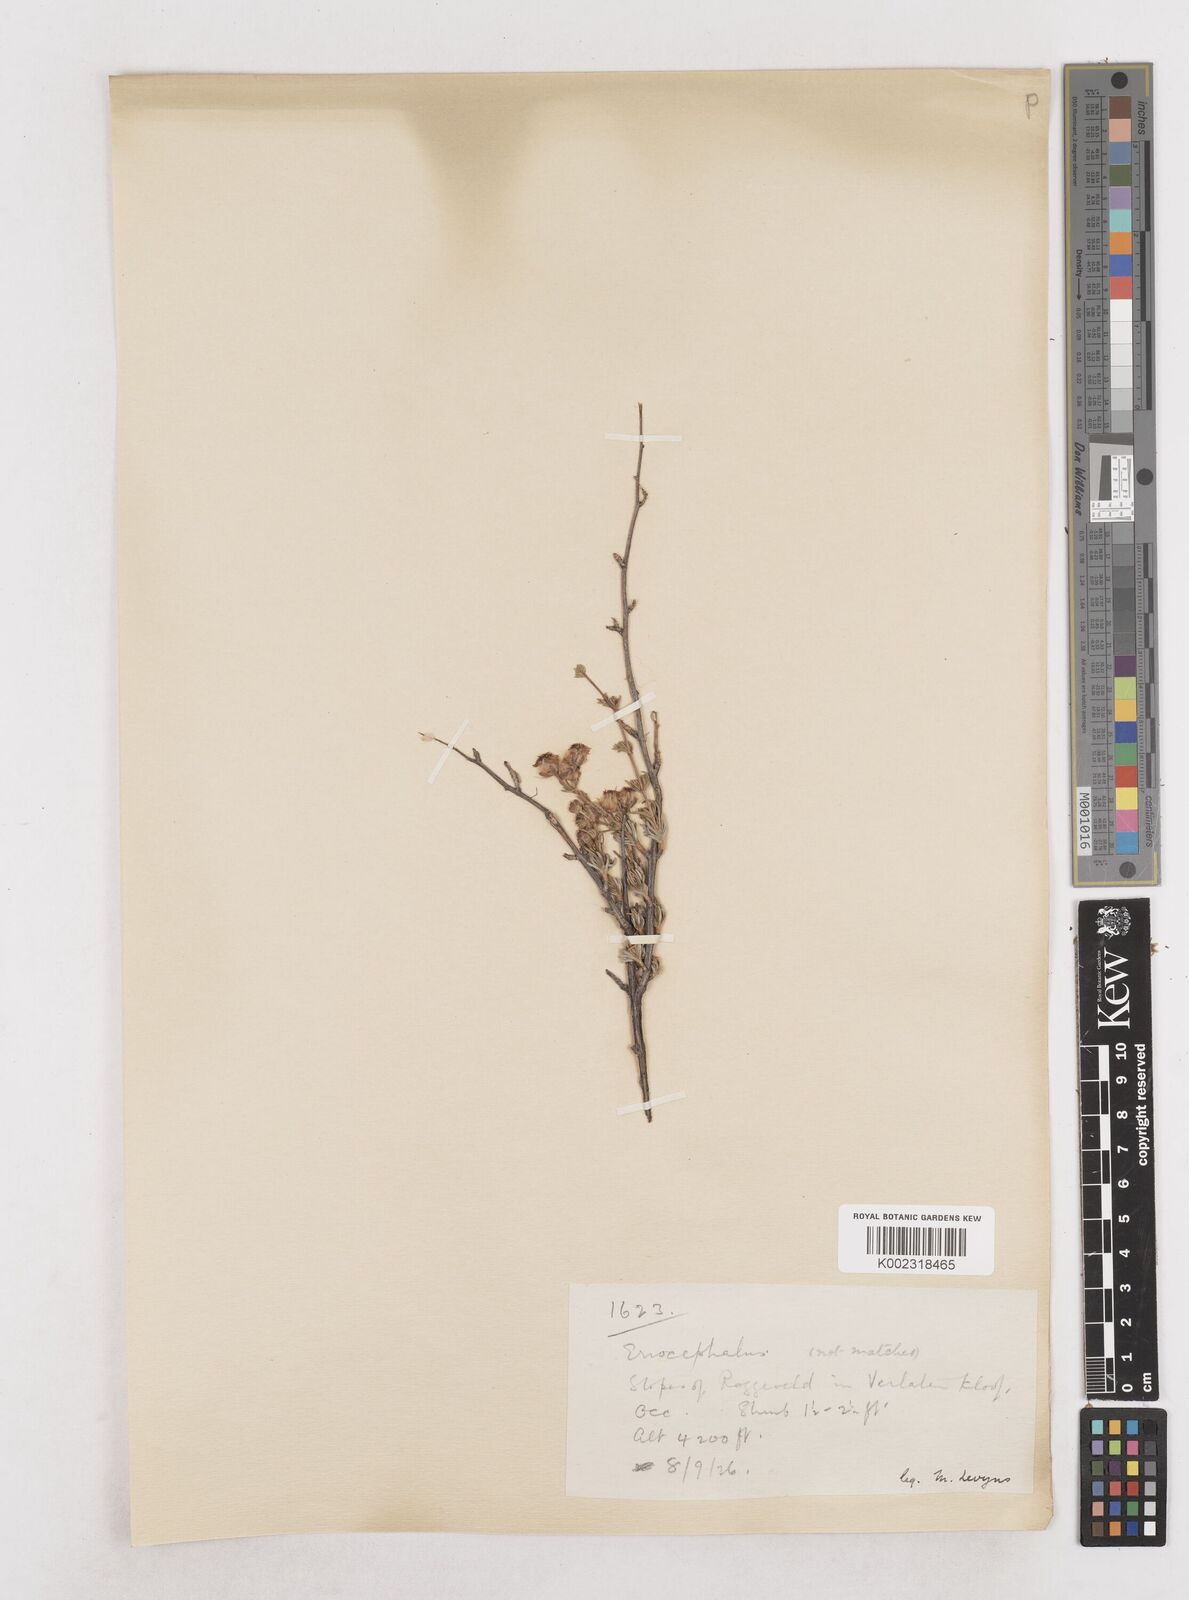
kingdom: Plantae
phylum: Tracheophyta
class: Magnoliopsida
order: Asterales
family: Asteraceae
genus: Eriocephalus
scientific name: Eriocephalus
